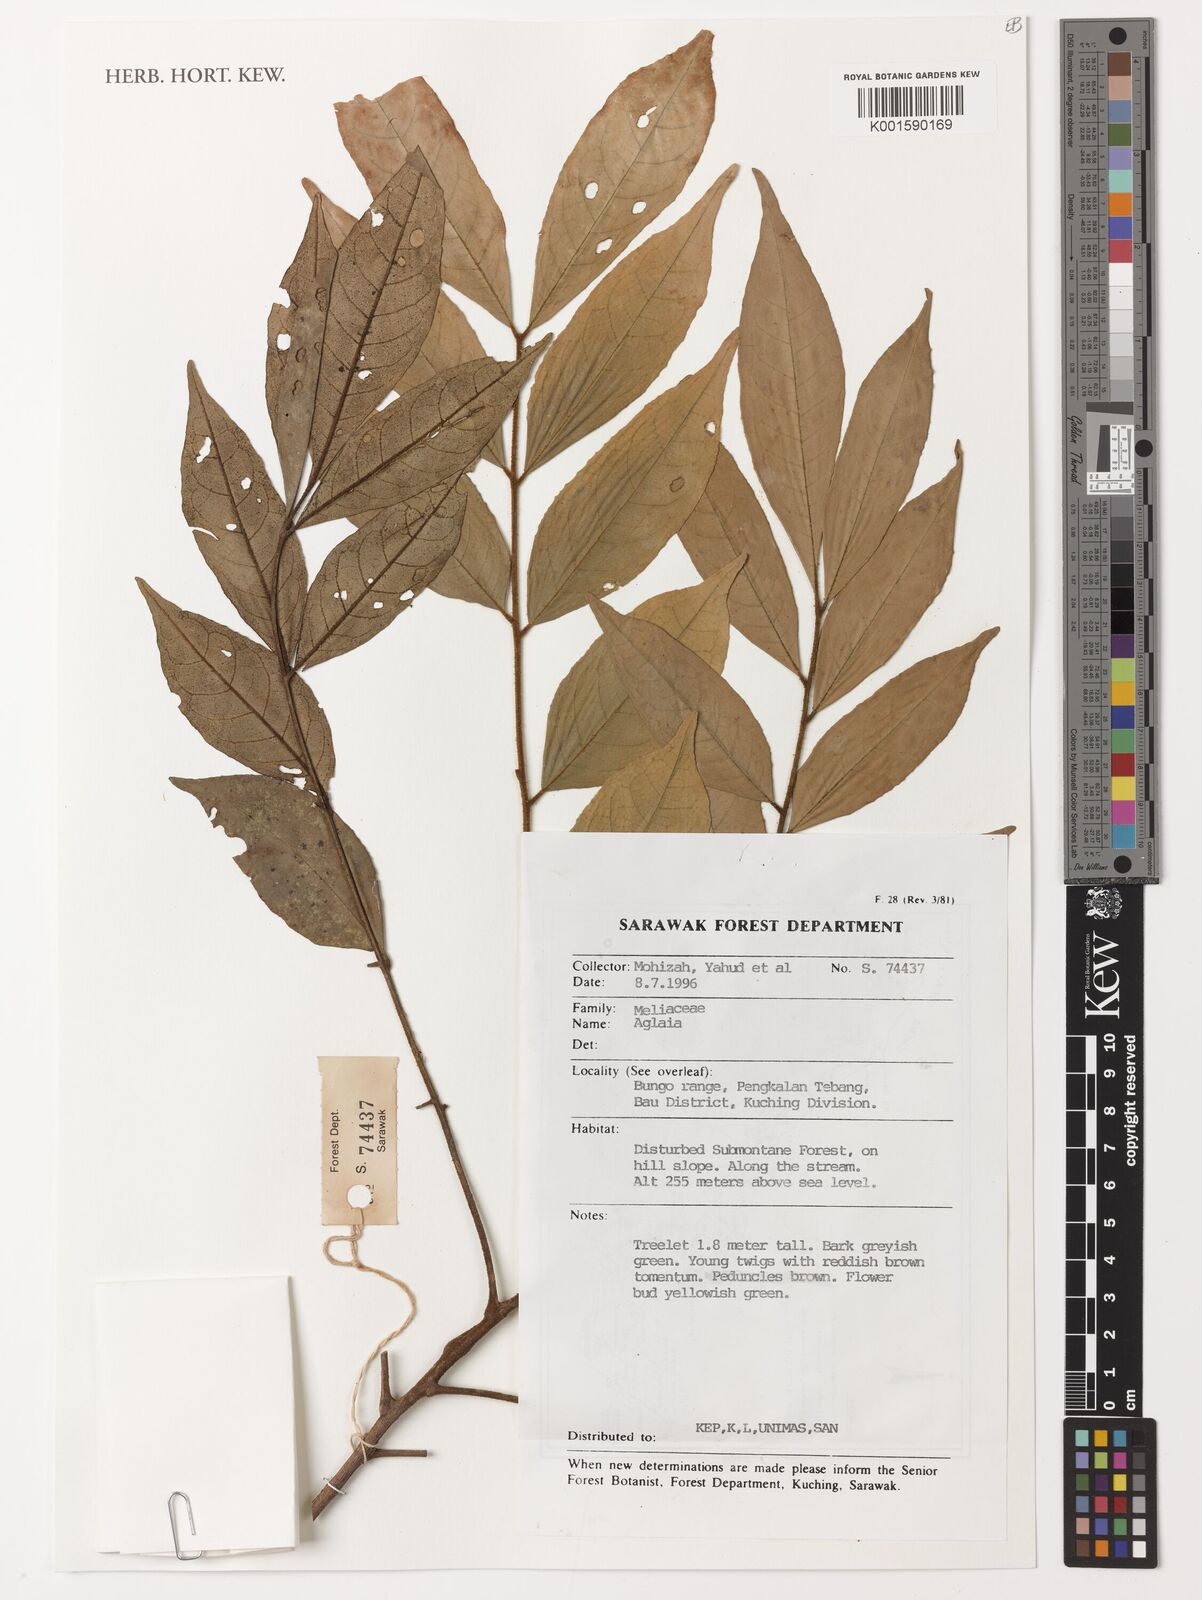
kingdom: Plantae
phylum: Tracheophyta
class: Magnoliopsida
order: Sapindales
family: Meliaceae
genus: Aglaia
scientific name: Aglaia
